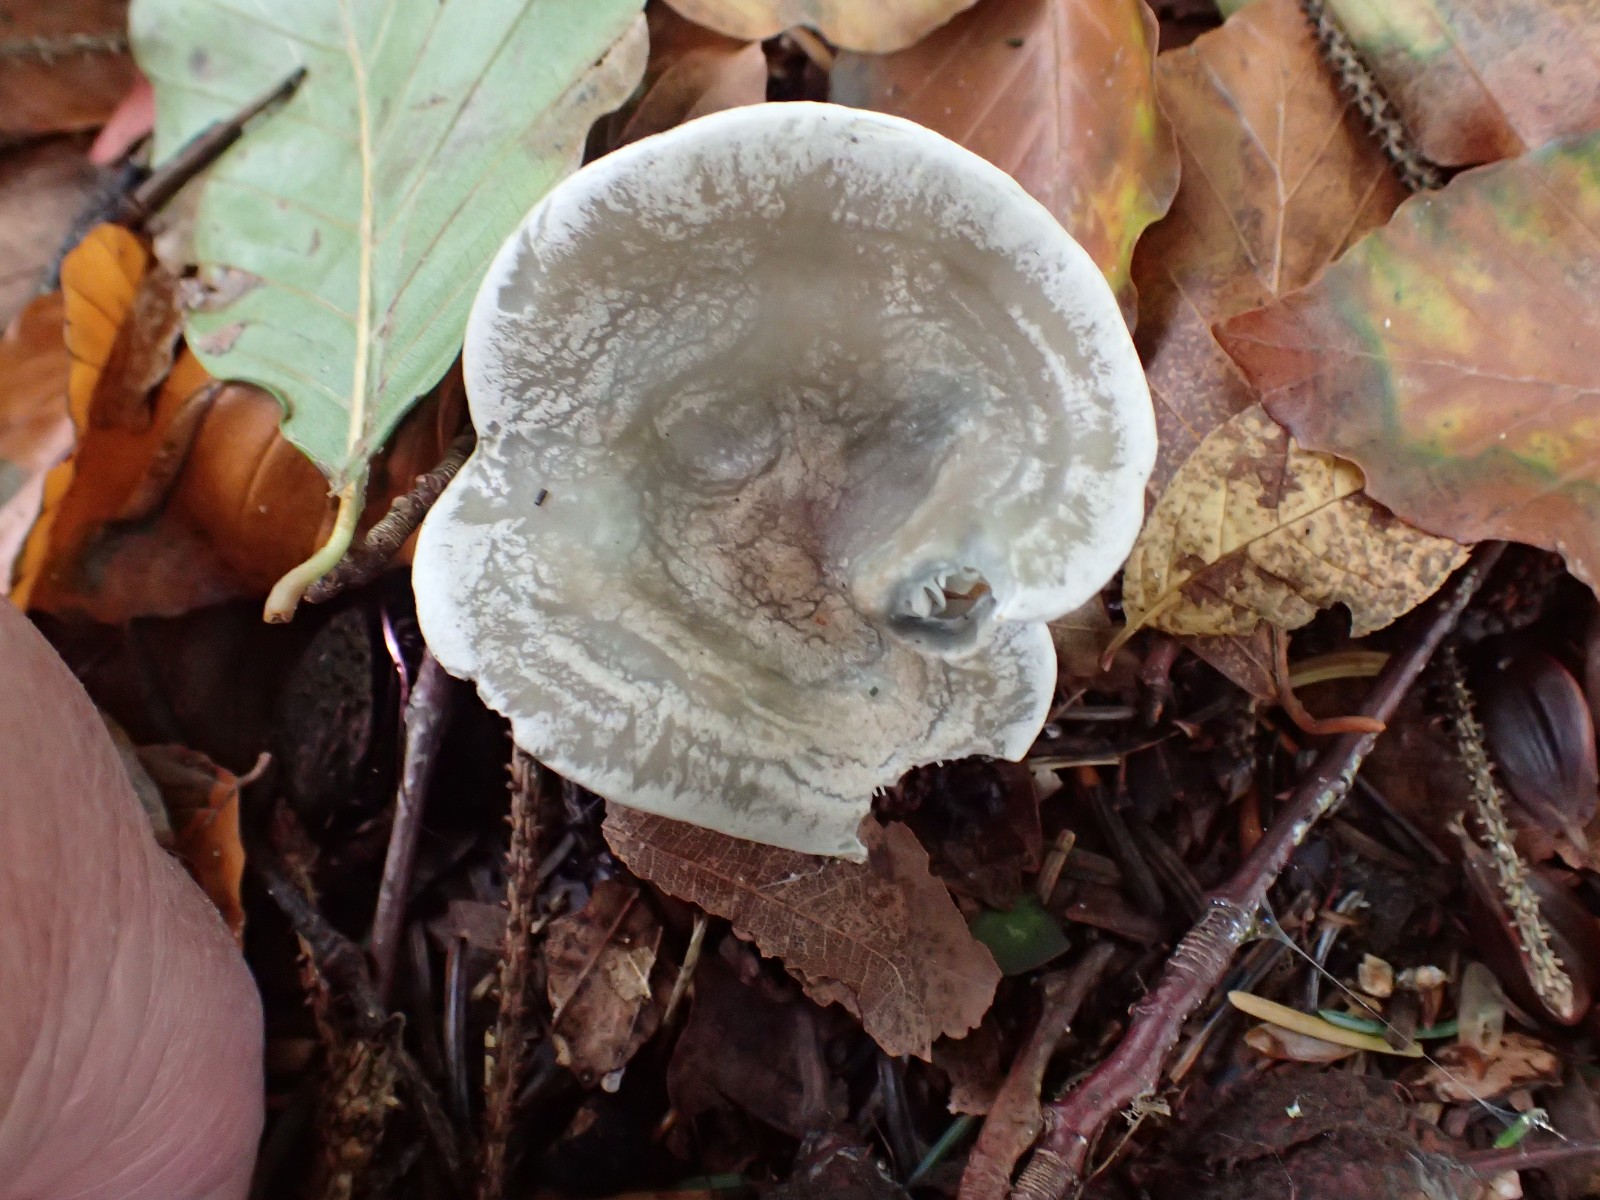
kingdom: Fungi
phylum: Basidiomycota
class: Agaricomycetes
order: Agaricales
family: Tricholomataceae
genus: Clitocybe
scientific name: Clitocybe odora
